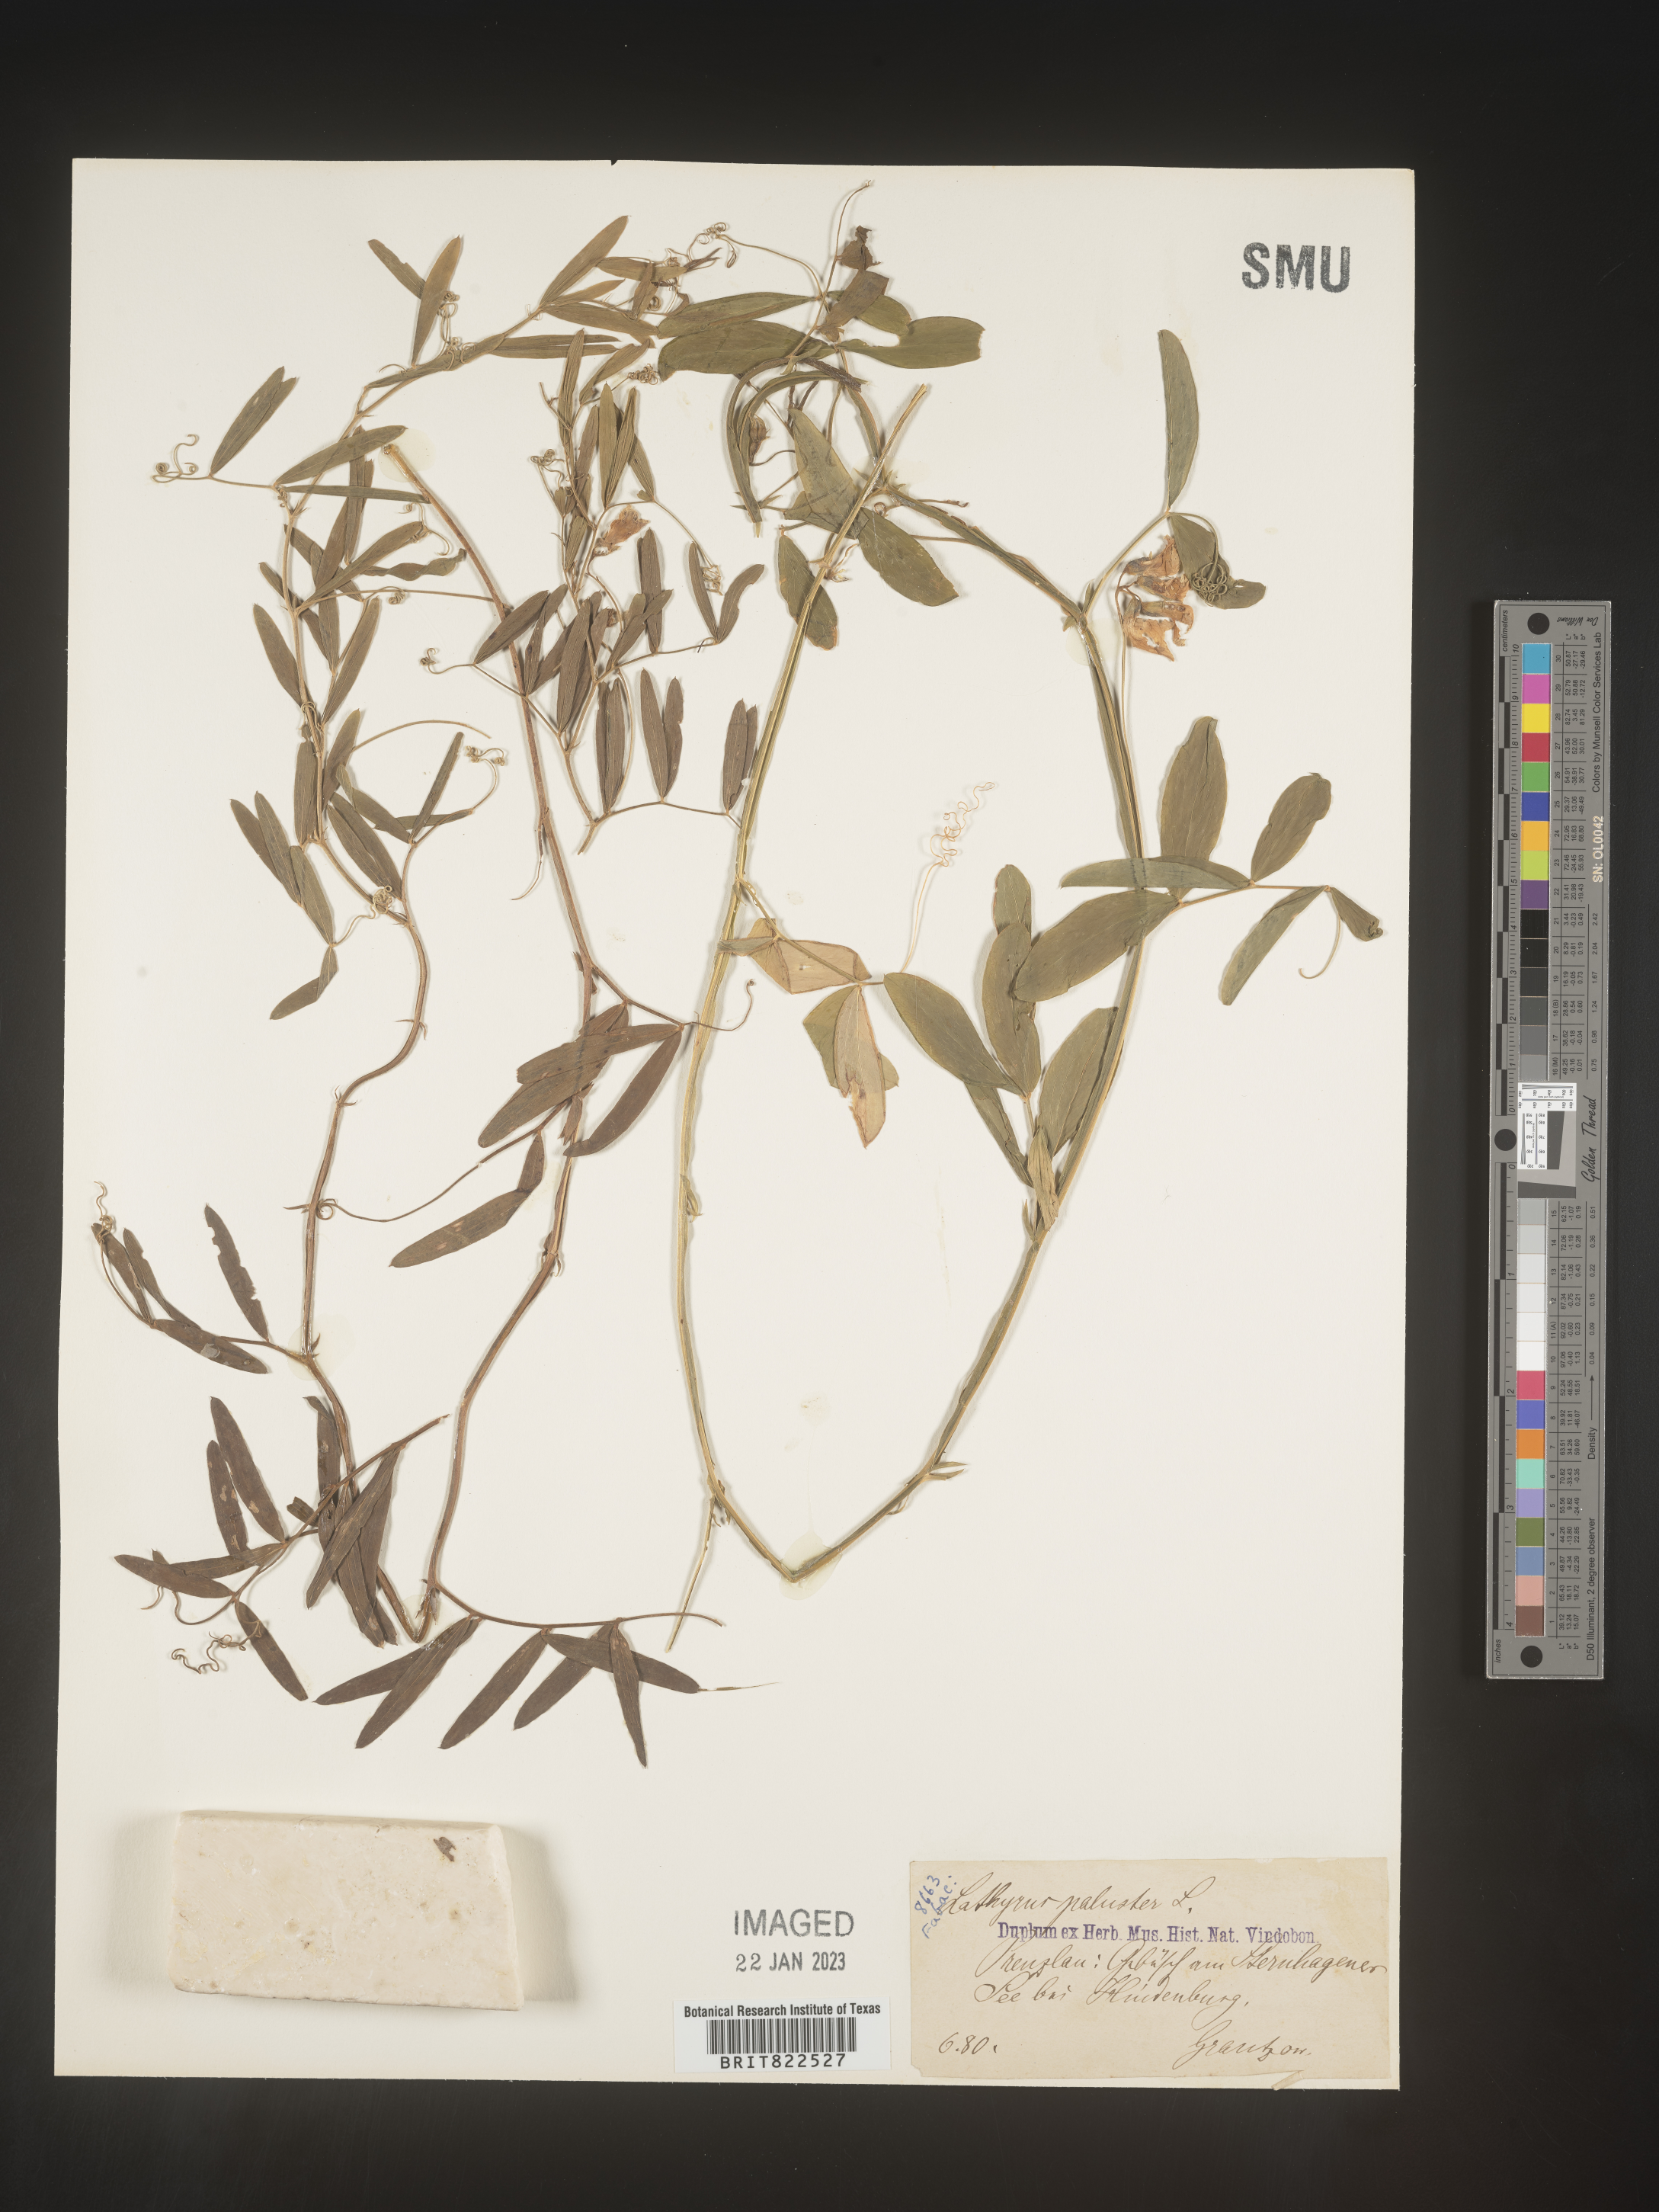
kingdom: Plantae
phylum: Tracheophyta
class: Magnoliopsida
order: Fabales
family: Fabaceae
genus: Lathyrus
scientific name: Lathyrus
